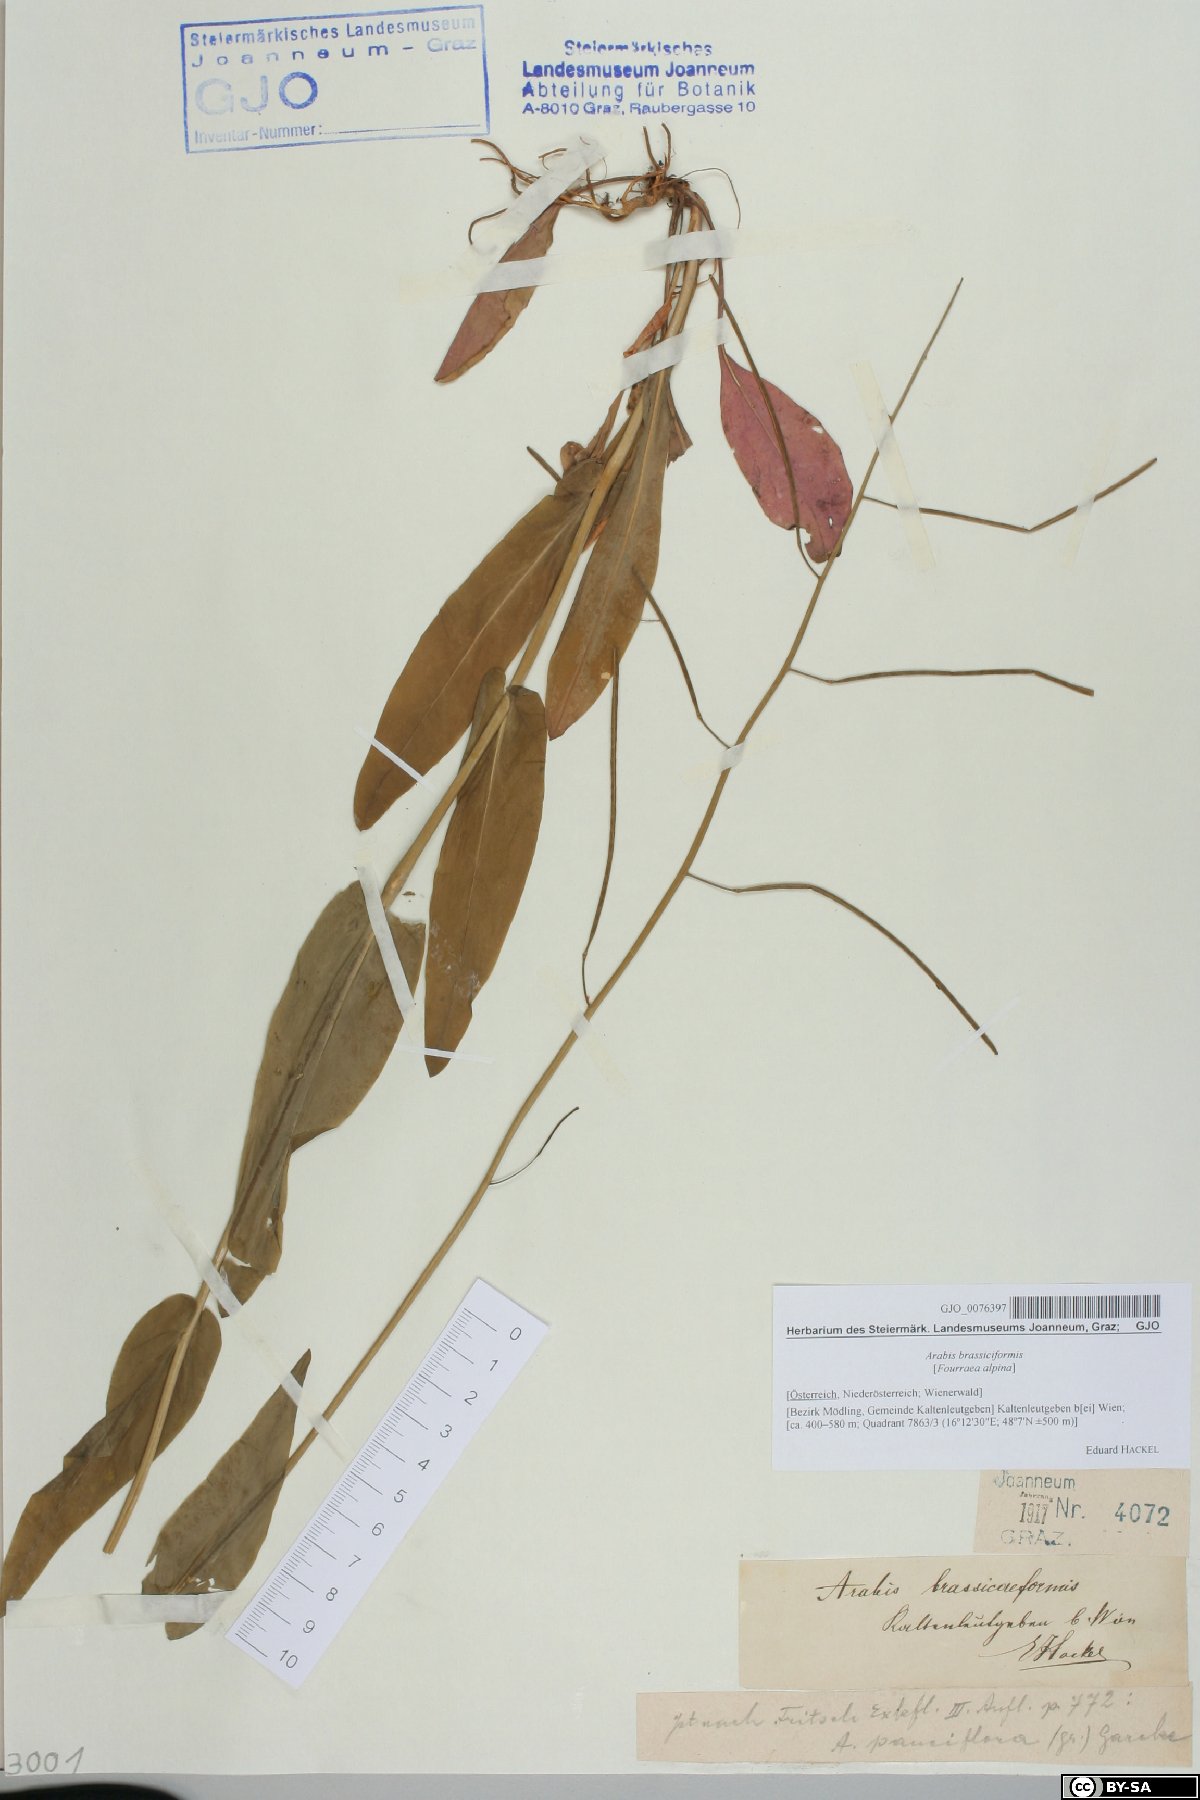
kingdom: Plantae
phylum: Tracheophyta
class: Magnoliopsida
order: Brassicales
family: Brassicaceae
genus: Fourraea
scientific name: Fourraea alpina
